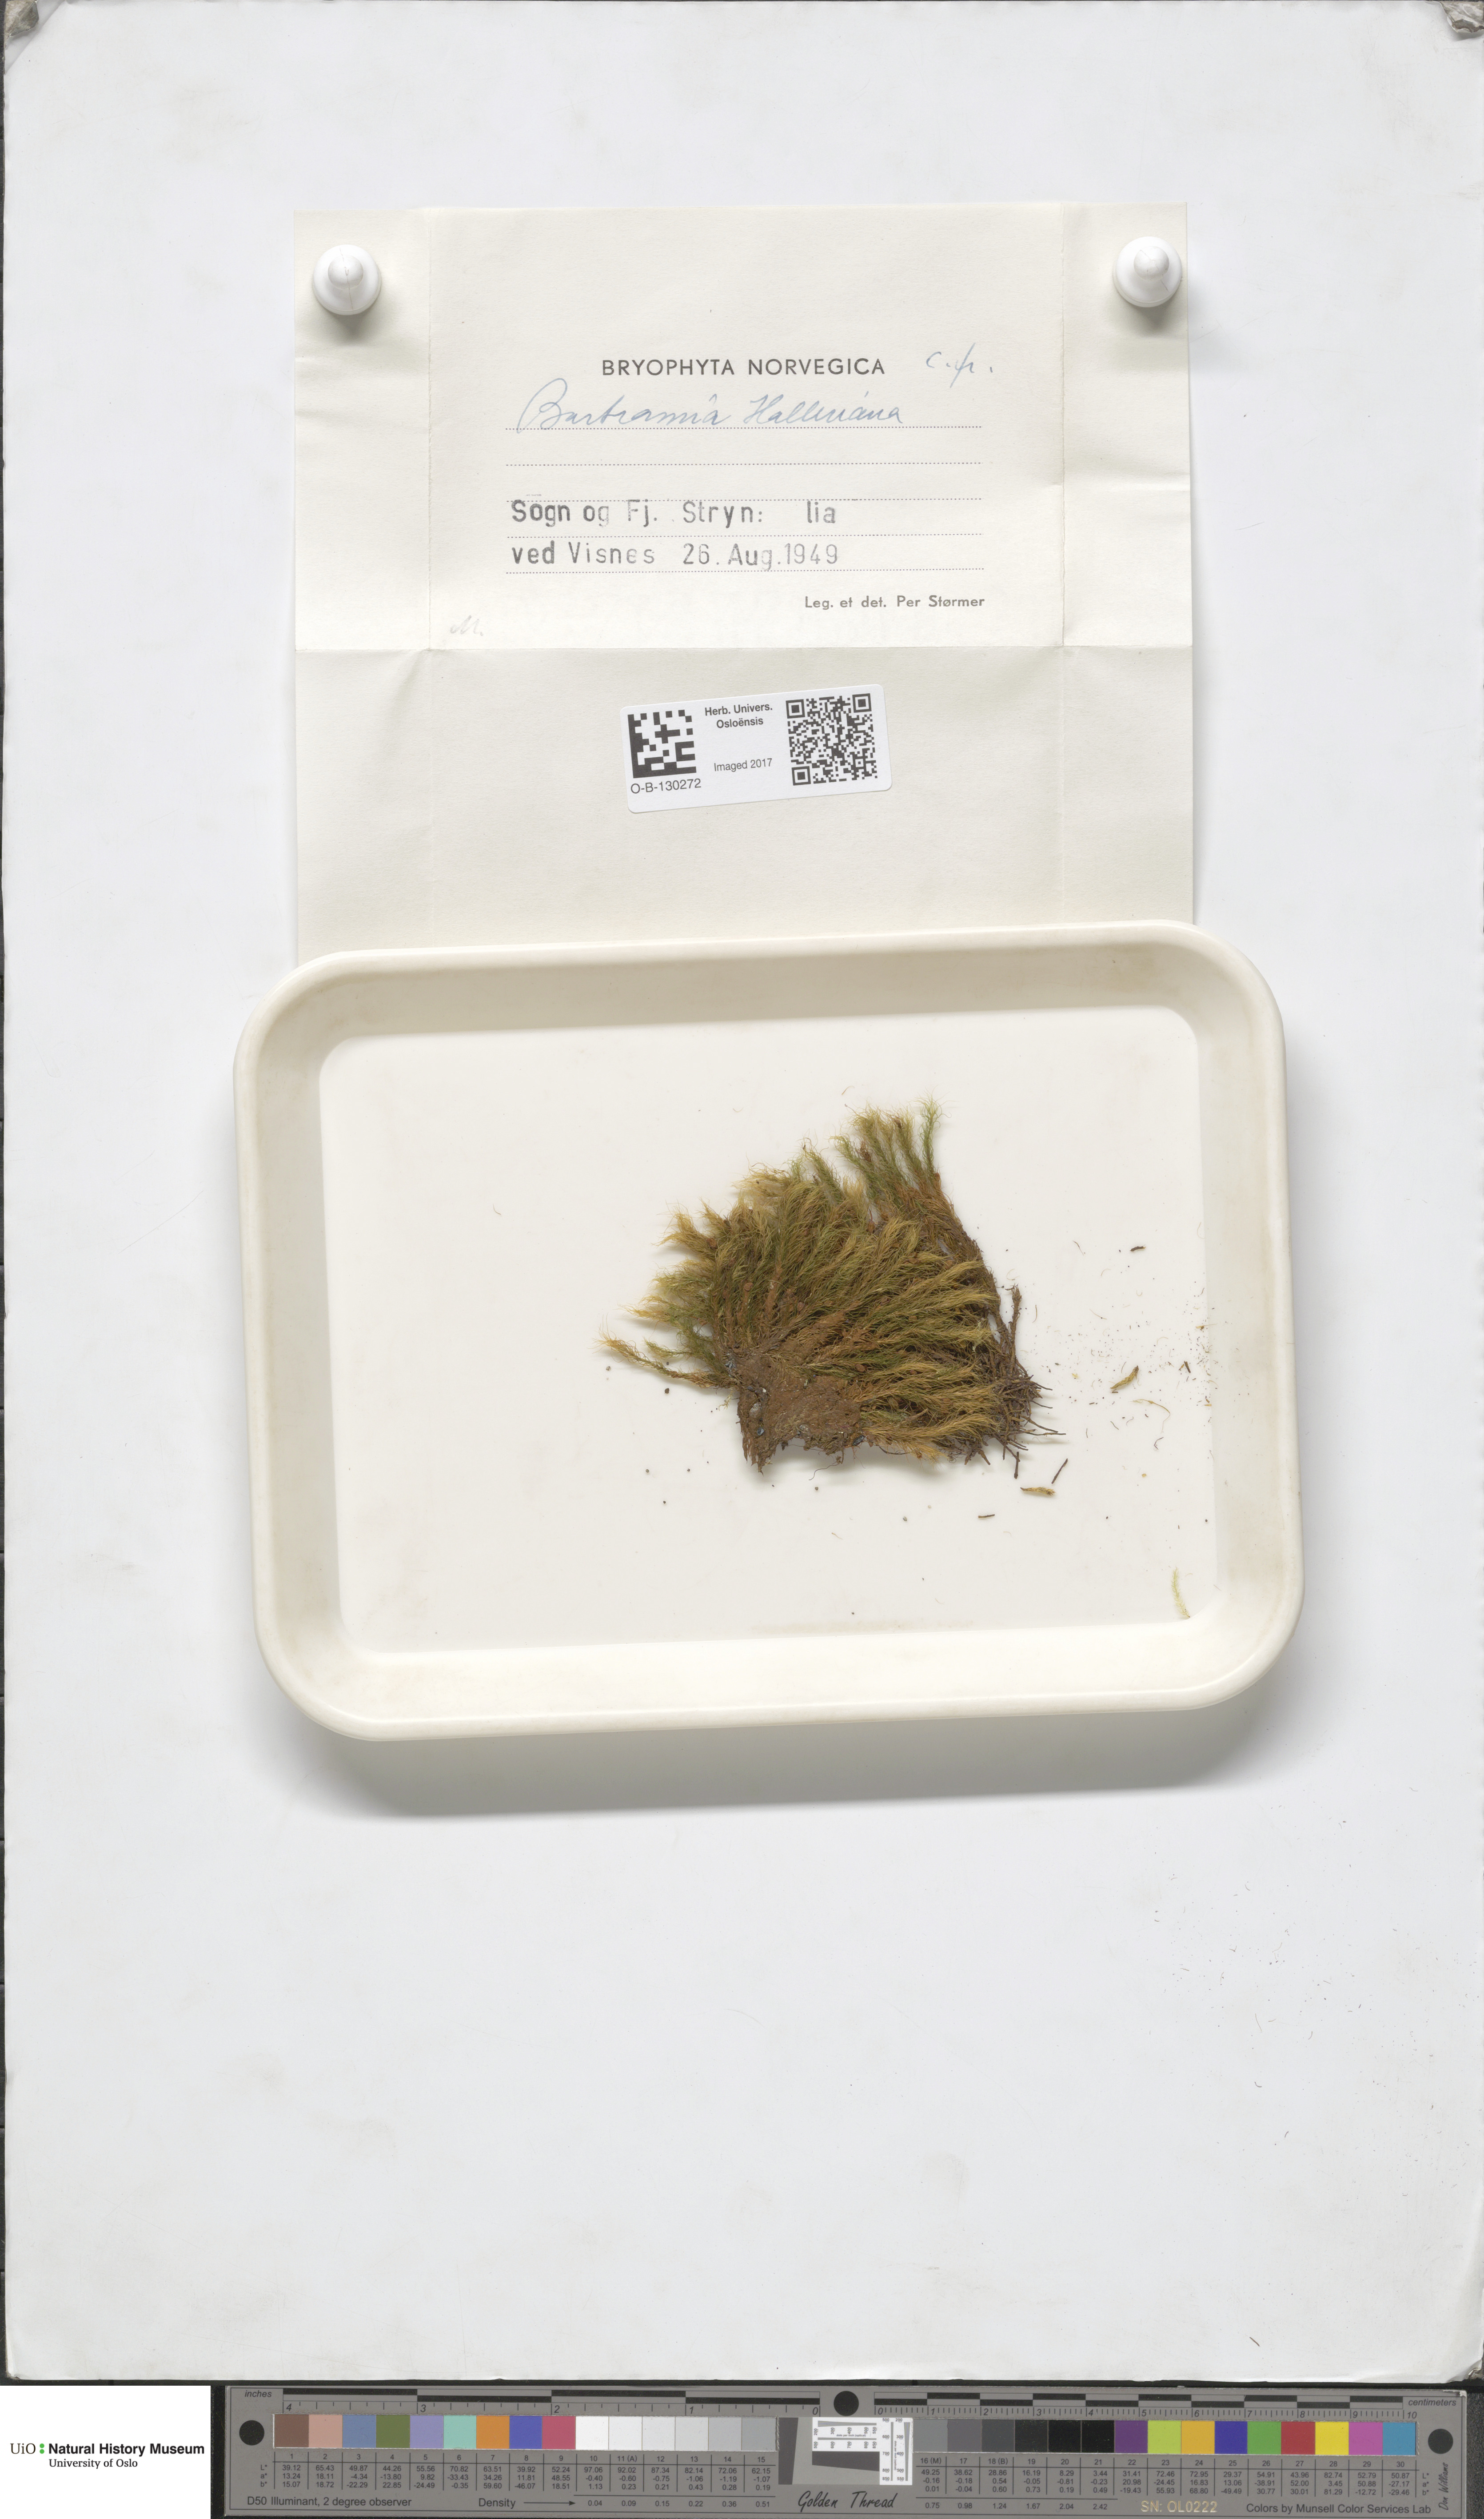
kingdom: Plantae
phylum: Bryophyta
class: Bryopsida
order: Bartramiales
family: Bartramiaceae
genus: Bartramia
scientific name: Bartramia halleriana
